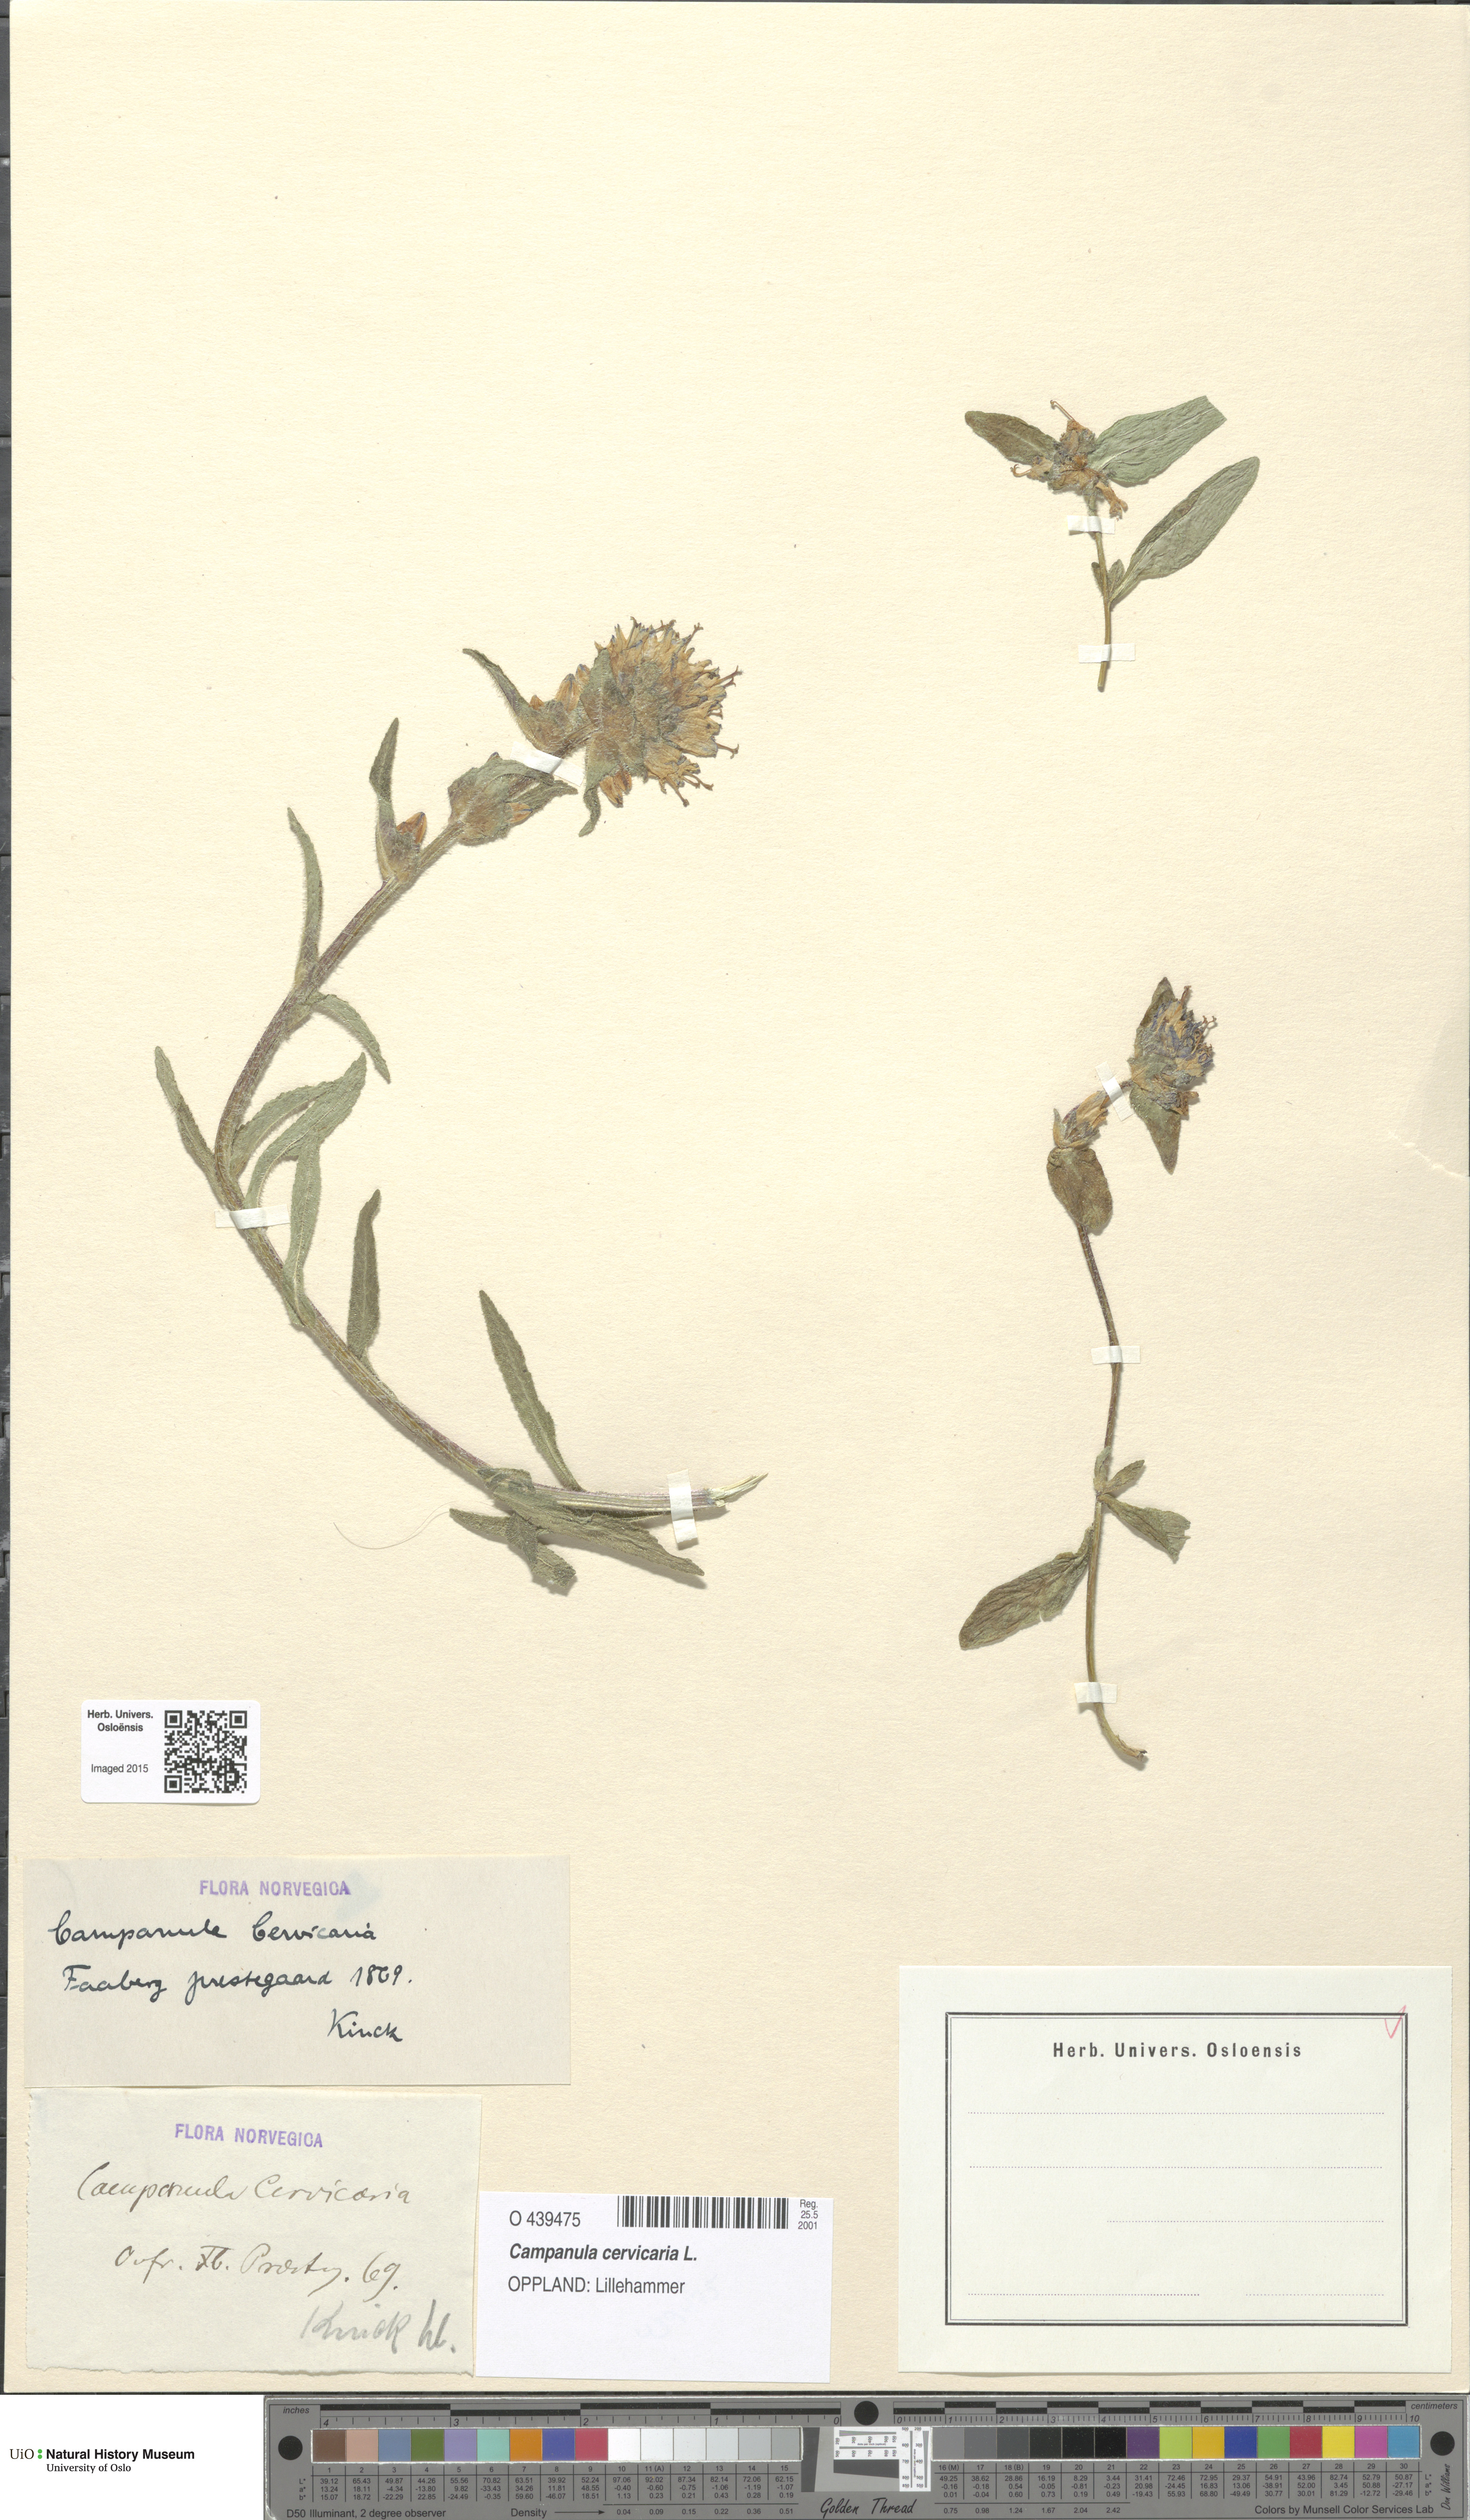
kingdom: Plantae
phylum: Tracheophyta
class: Magnoliopsida
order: Asterales
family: Campanulaceae
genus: Campanula
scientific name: Campanula cervicaria
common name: Bristly bellflower
